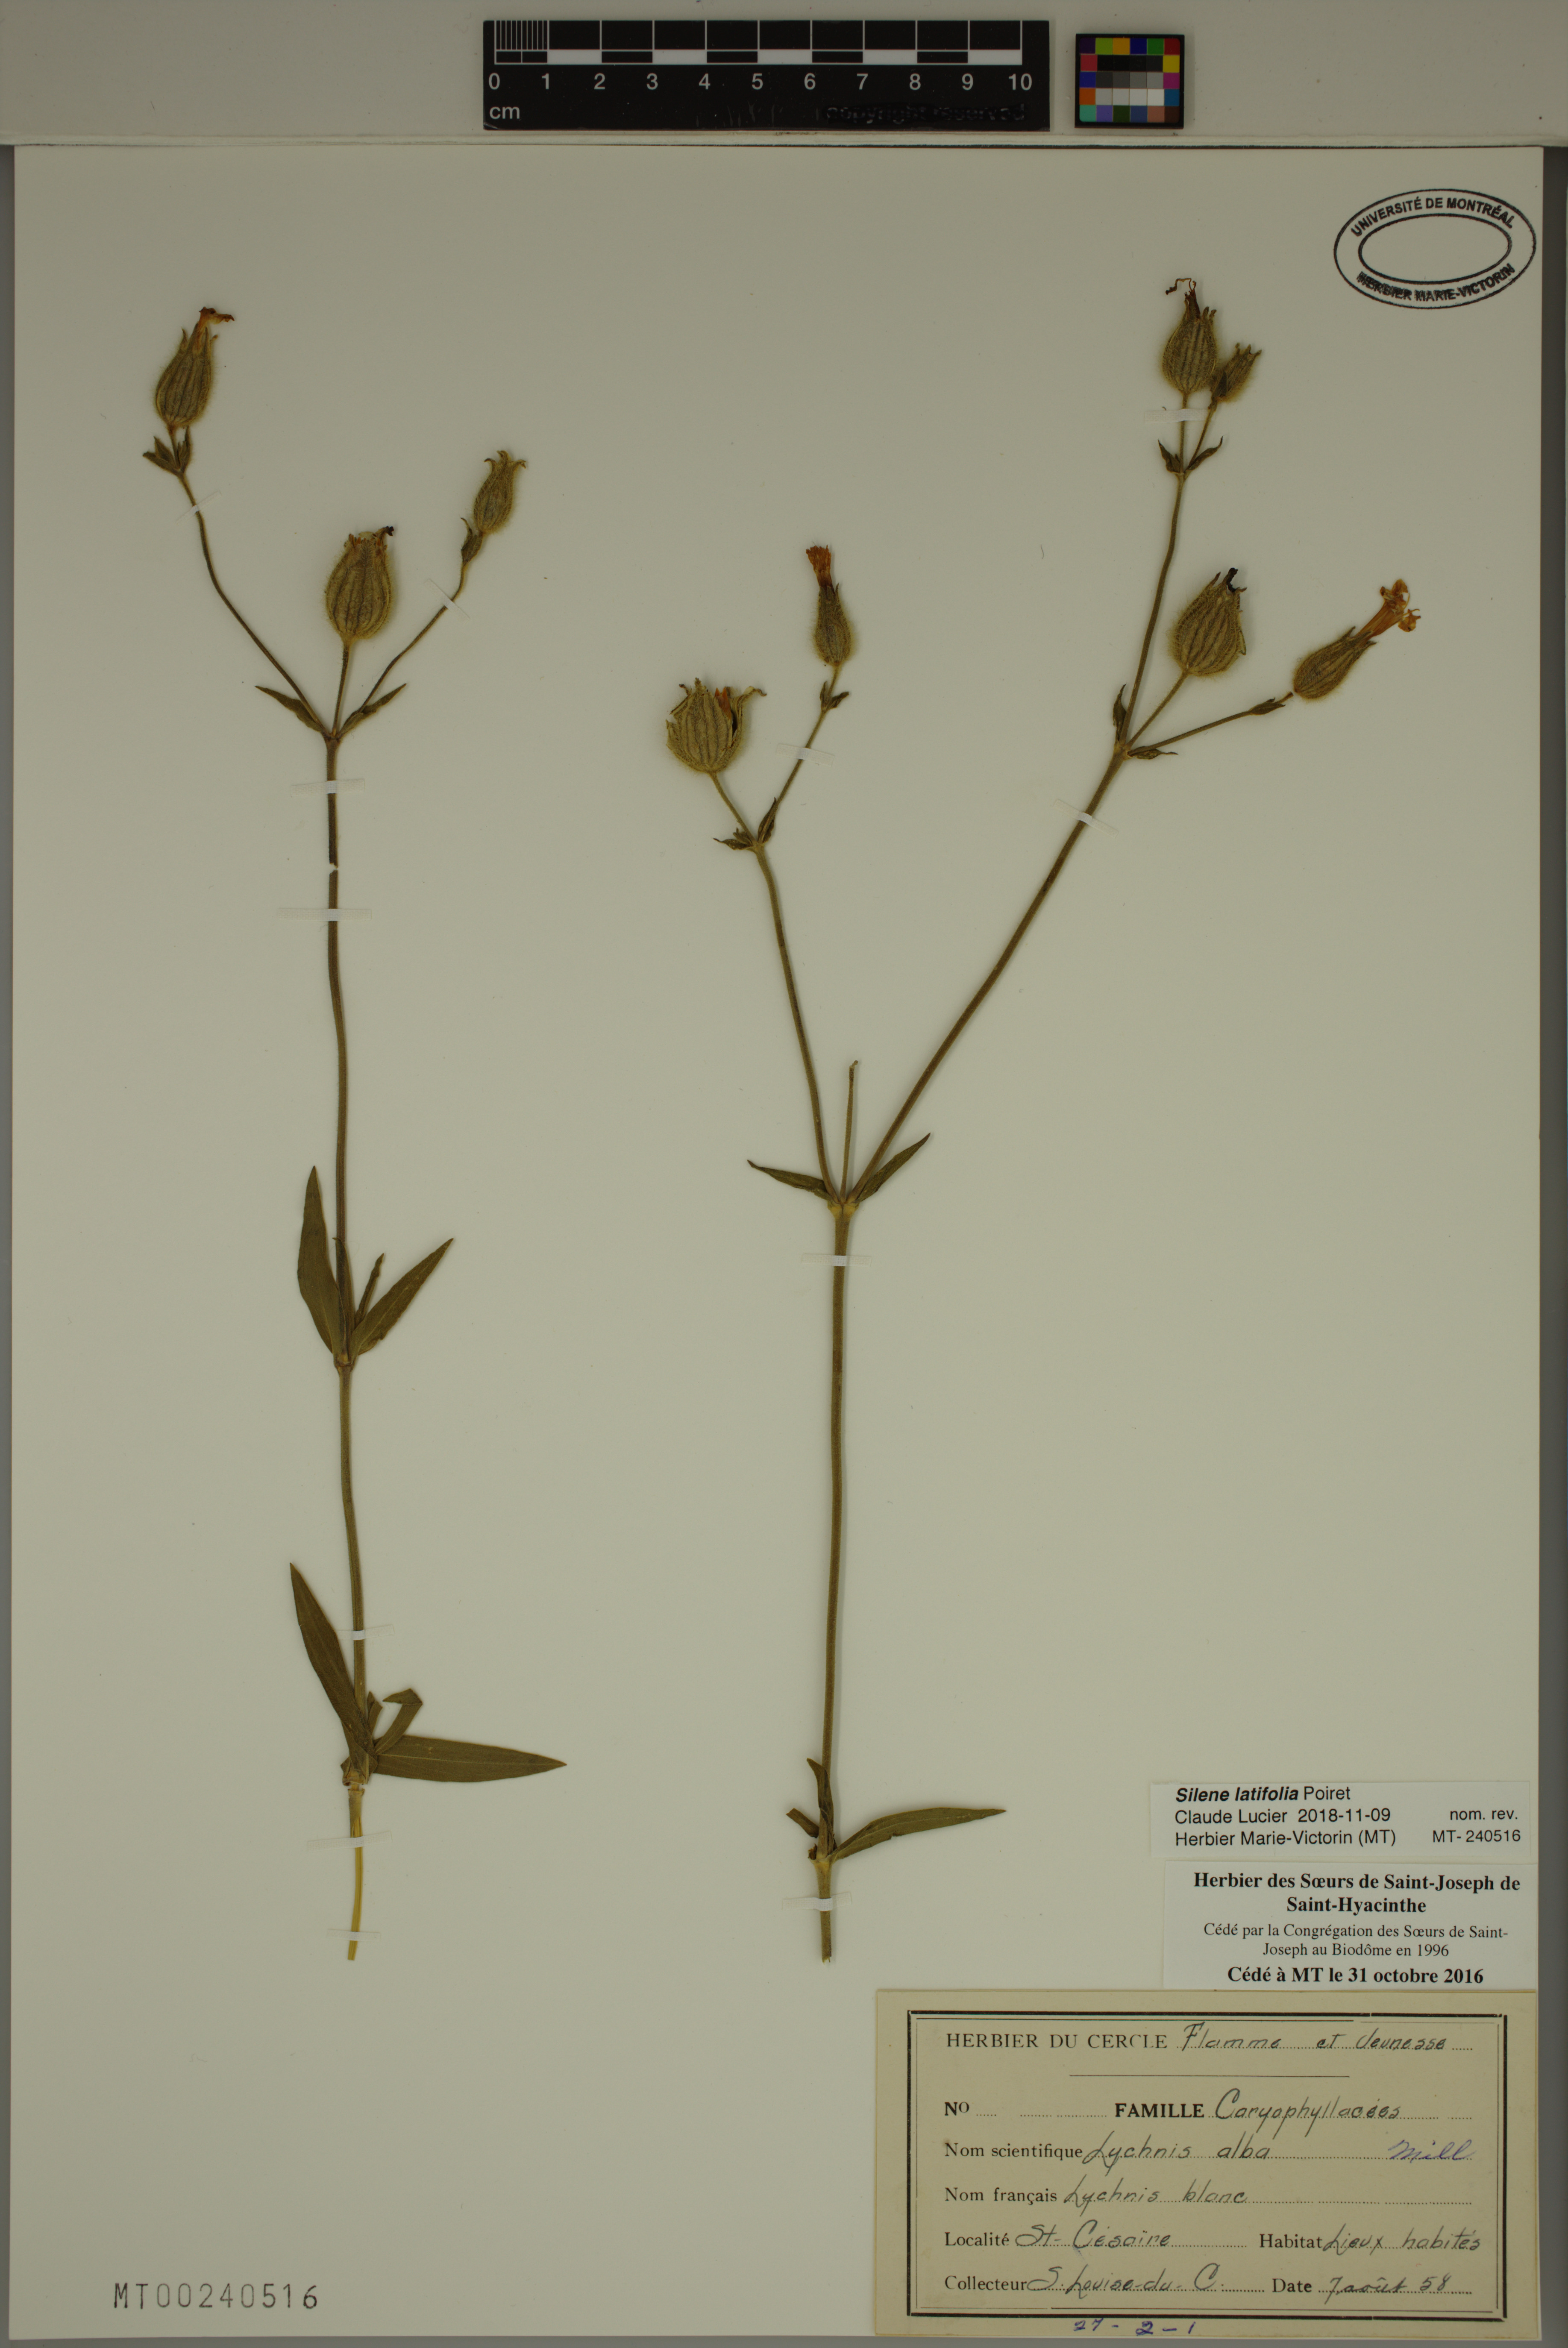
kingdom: Plantae
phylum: Tracheophyta
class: Magnoliopsida
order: Caryophyllales
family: Caryophyllaceae
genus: Silene
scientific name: Silene latifolia
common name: White campion
